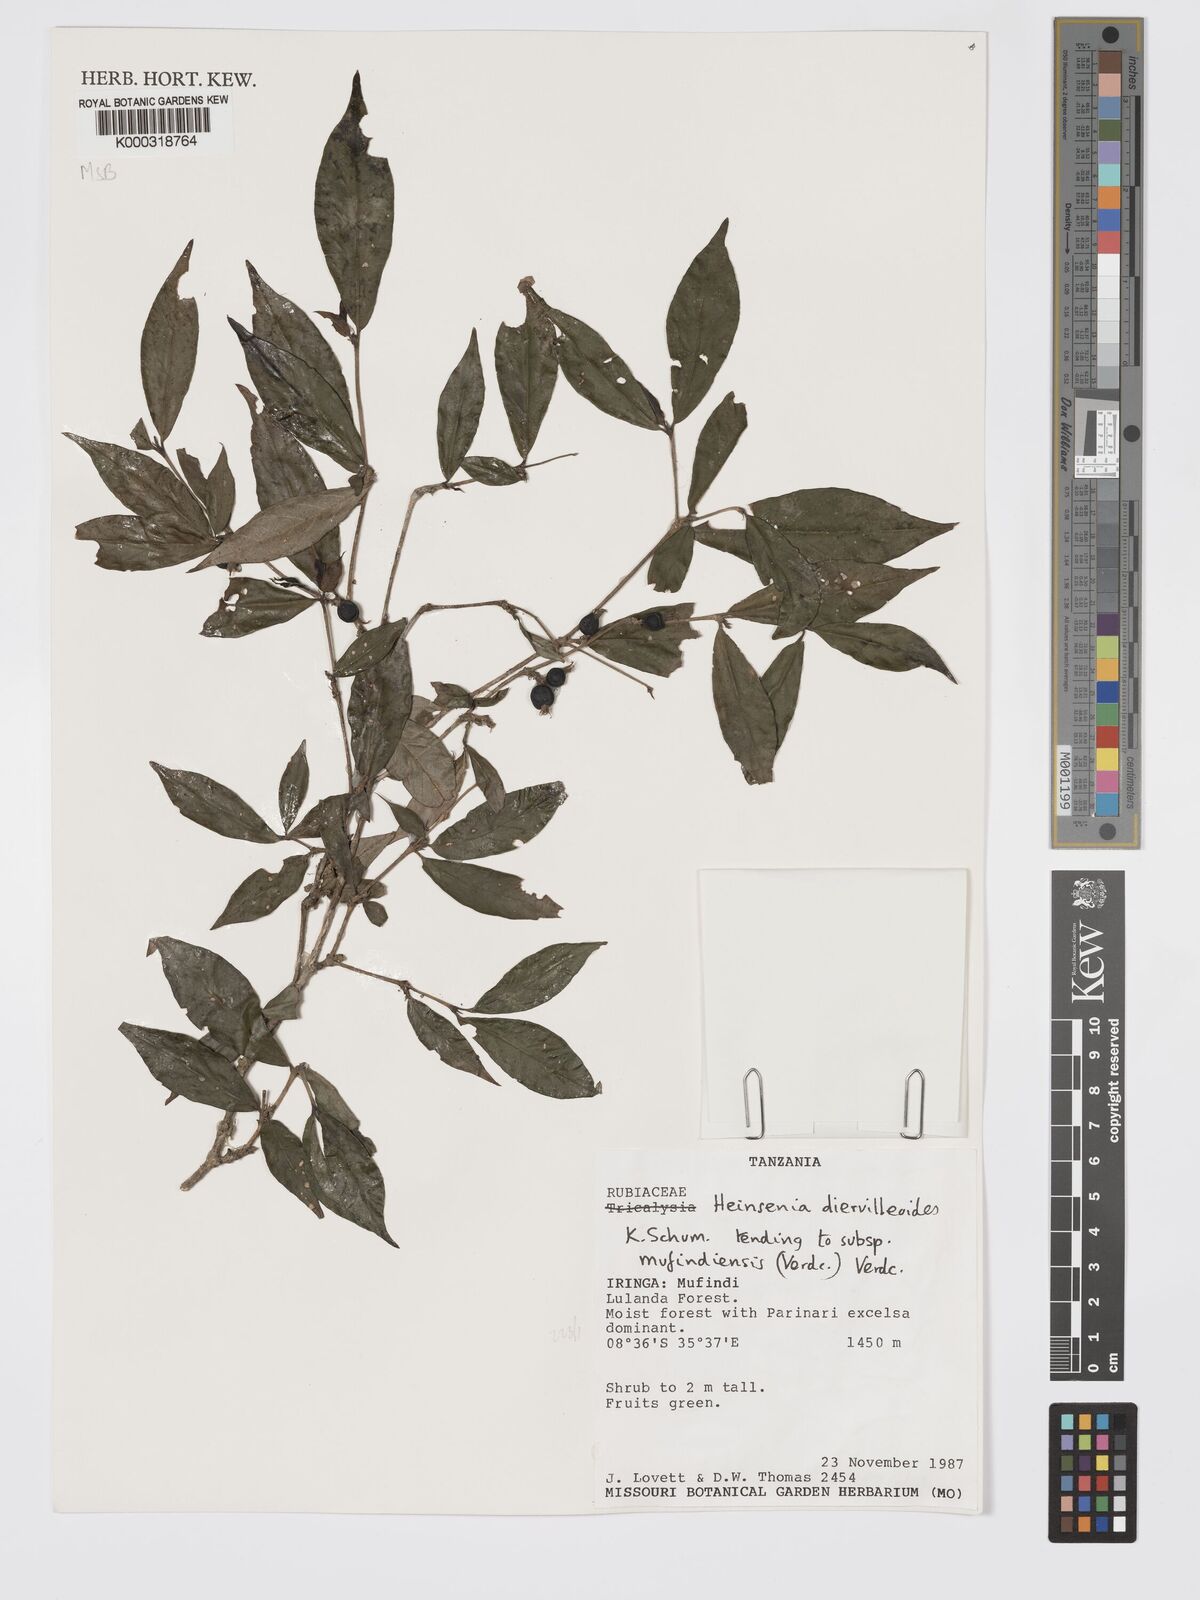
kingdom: Plantae
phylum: Tracheophyta
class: Magnoliopsida
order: Gentianales
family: Rubiaceae
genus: Heinsenia
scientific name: Heinsenia diervilleoides
